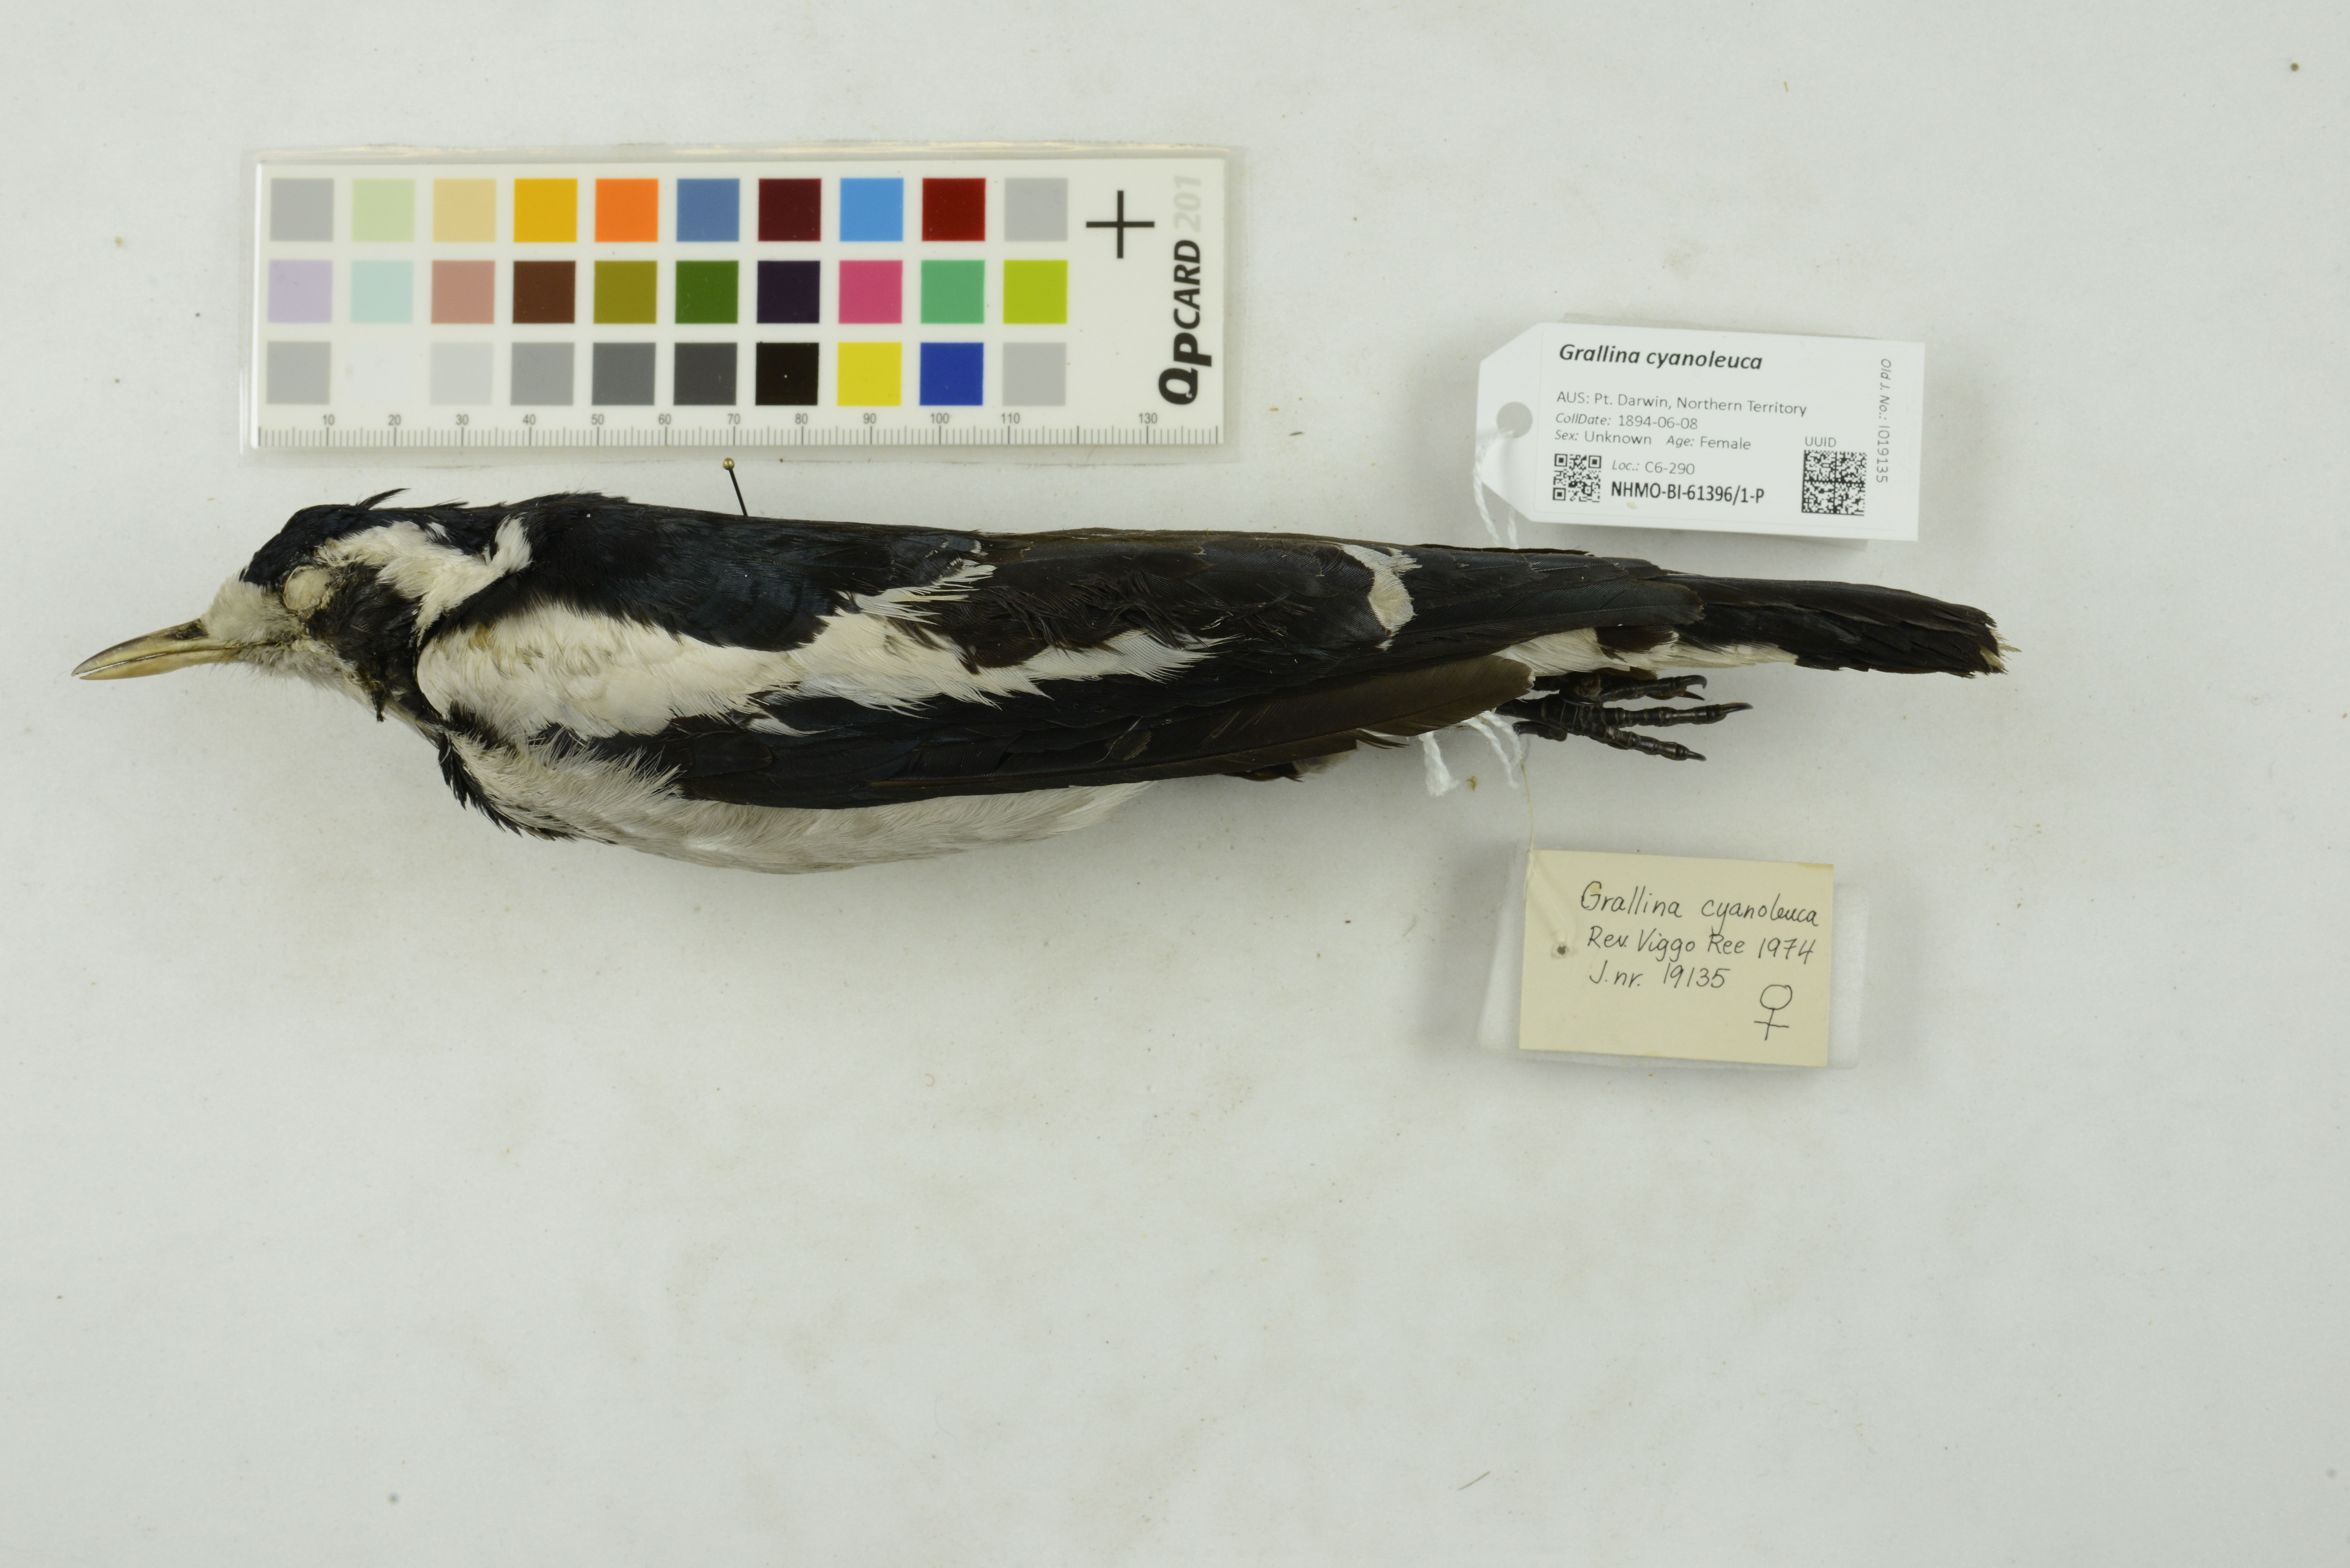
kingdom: Animalia
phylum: Chordata
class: Aves
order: Passeriformes
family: Monarchidae
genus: Grallina
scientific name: Grallina cyanoleuca
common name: Magpie-lark
